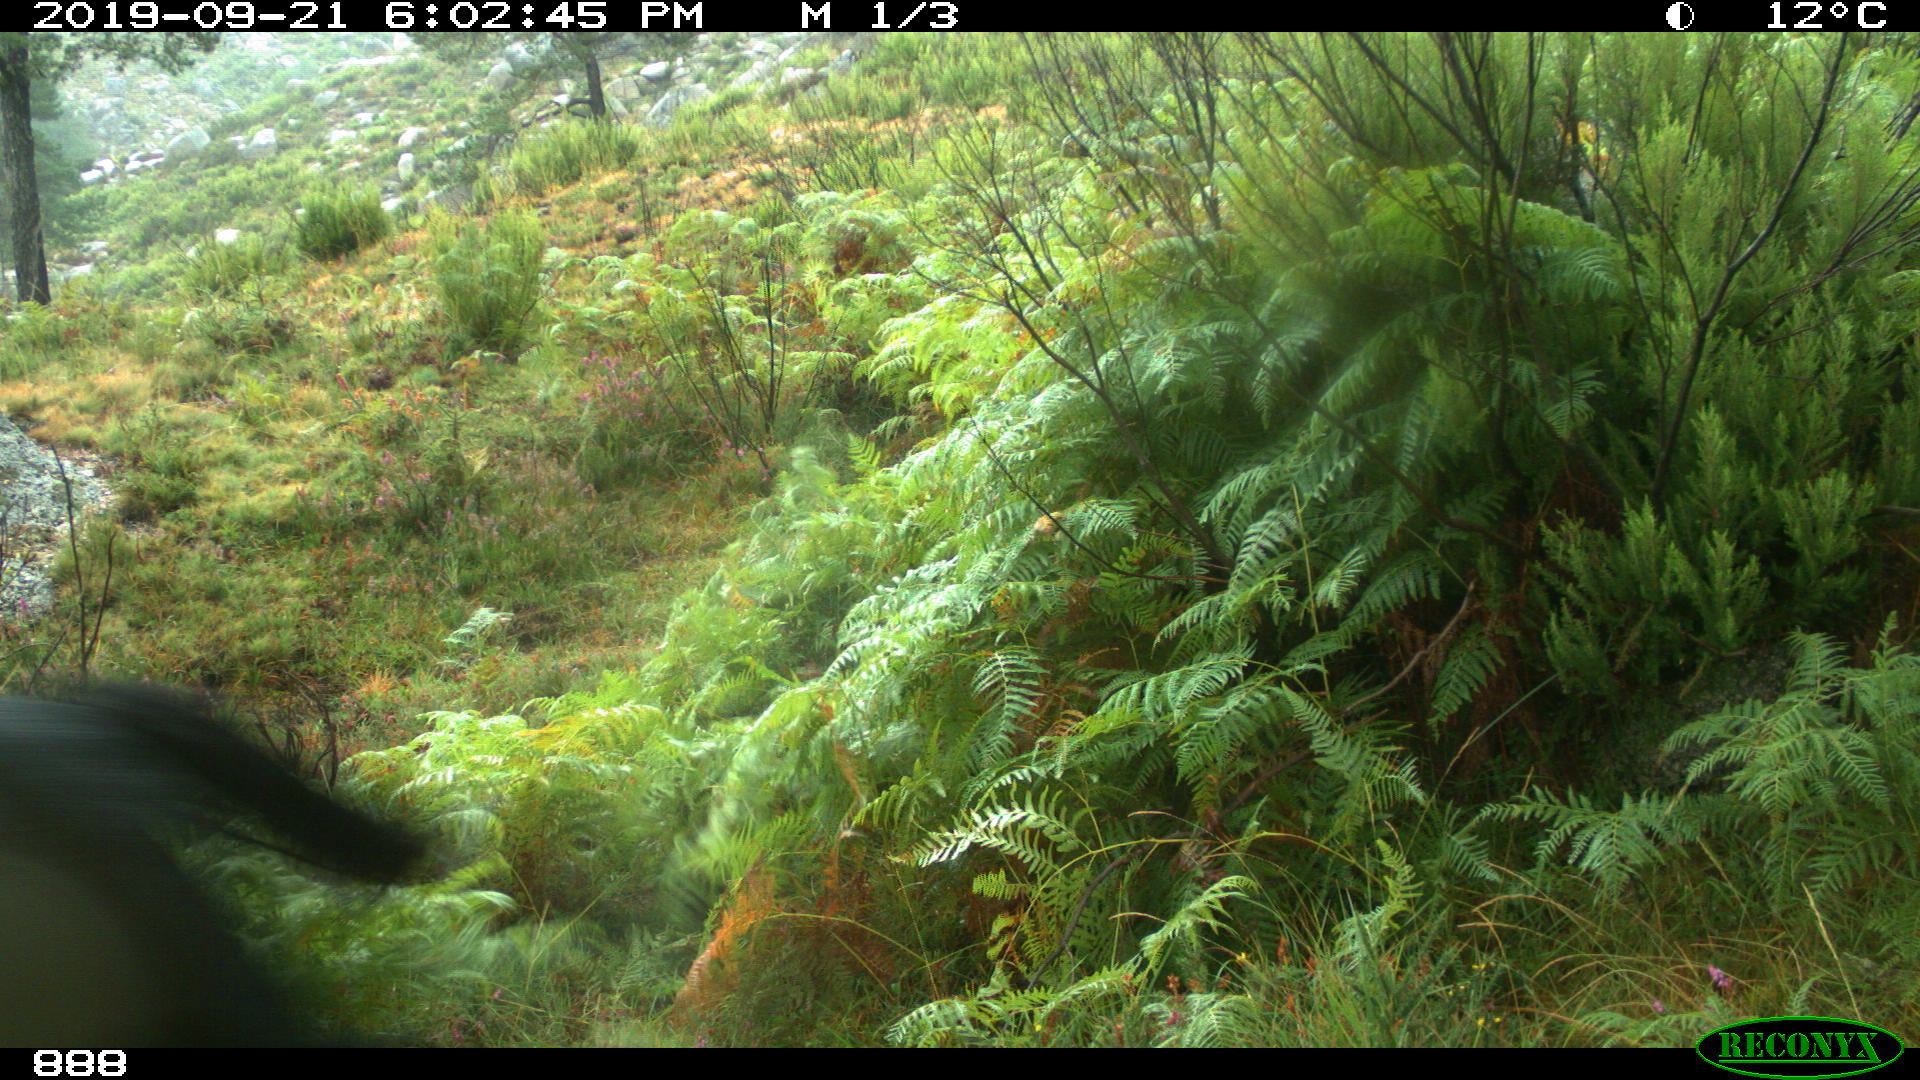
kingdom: Animalia
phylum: Chordata
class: Mammalia
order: Perissodactyla
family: Equidae
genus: Equus
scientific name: Equus caballus
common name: Horse
